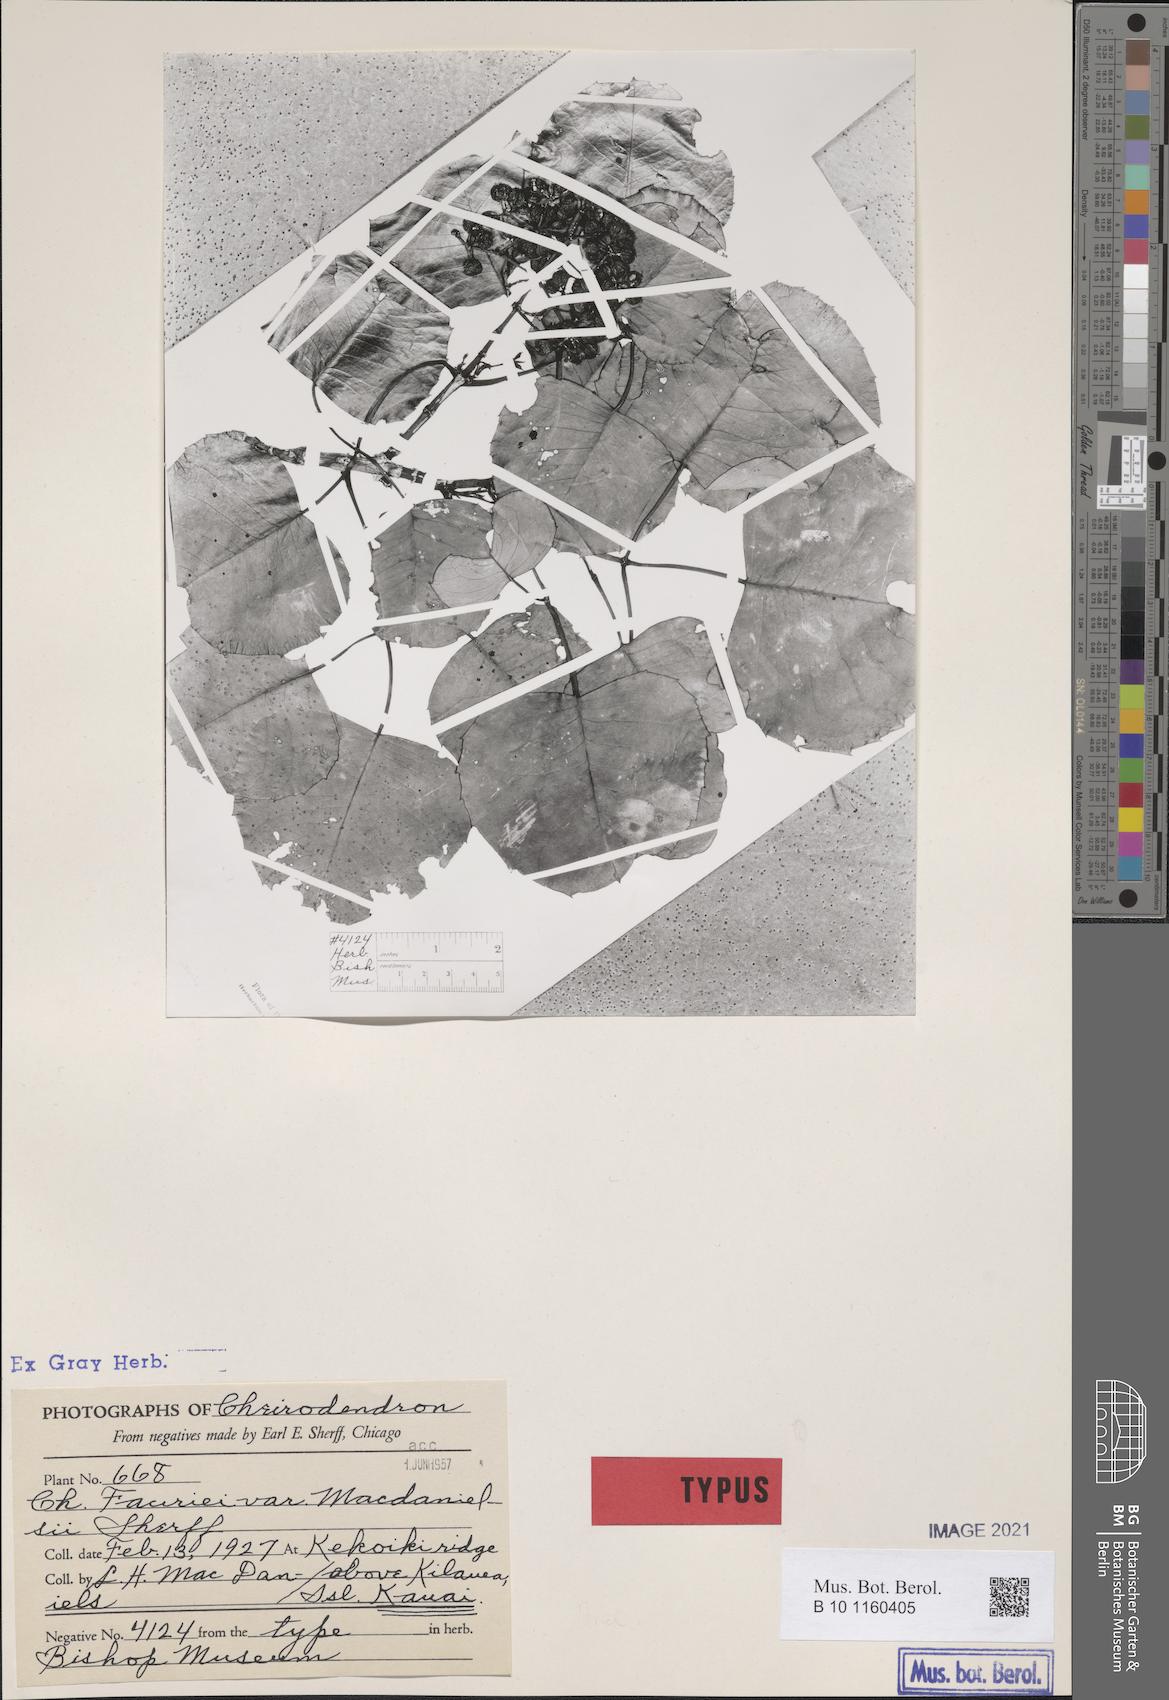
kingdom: Plantae
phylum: Tracheophyta
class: Magnoliopsida
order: Apiales
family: Araliaceae
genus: Cheirodendron
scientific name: Cheirodendron fauriei
